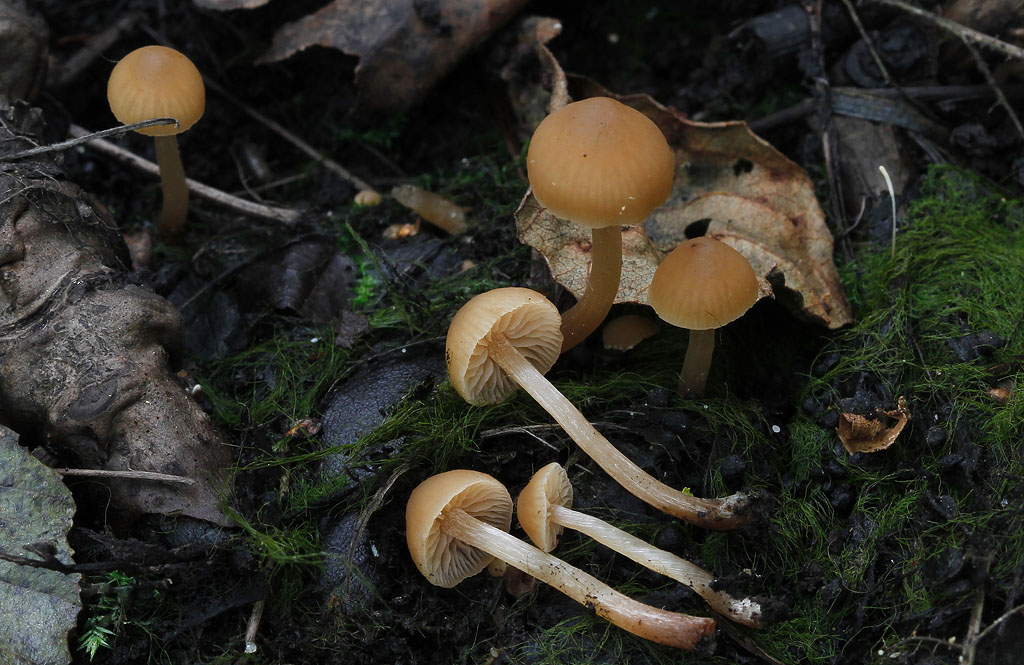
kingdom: Fungi
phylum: Basidiomycota
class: Agaricomycetes
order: Agaricales
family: Hymenogastraceae
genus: Naucoria
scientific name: Naucoria celluloderma
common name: enlig knaphat
